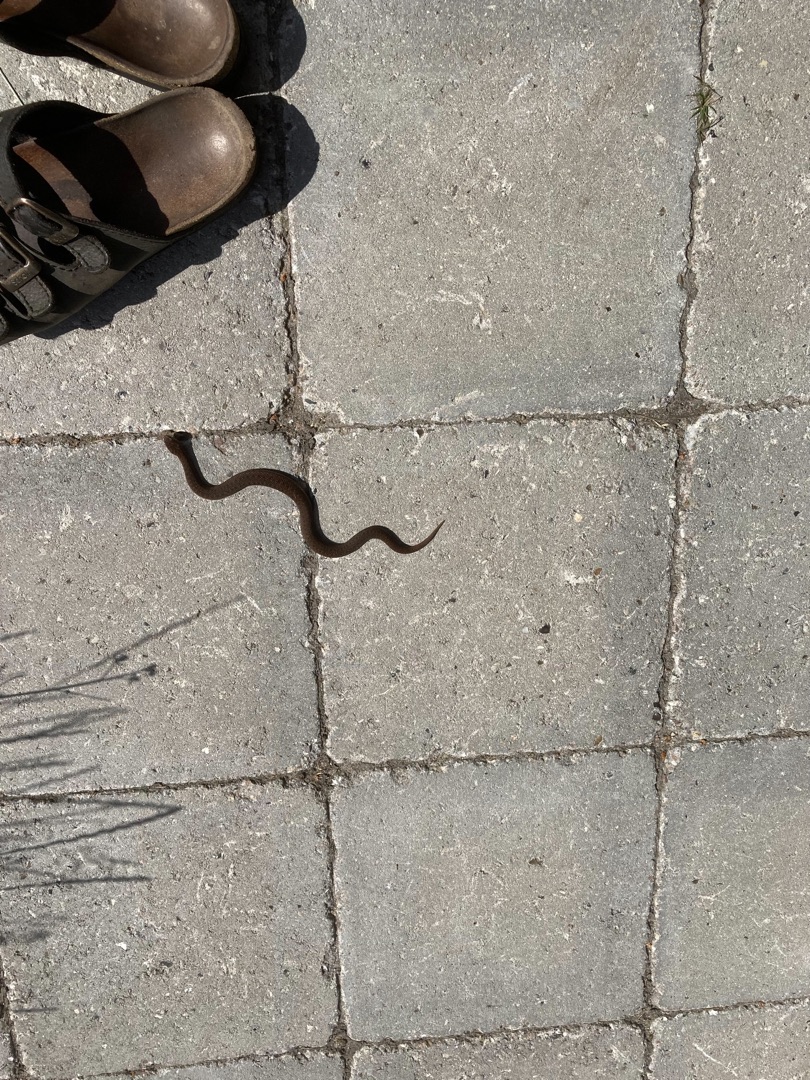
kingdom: Animalia
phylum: Chordata
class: Squamata
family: Viperidae
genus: Vipera
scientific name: Vipera berus
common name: Hugorm
